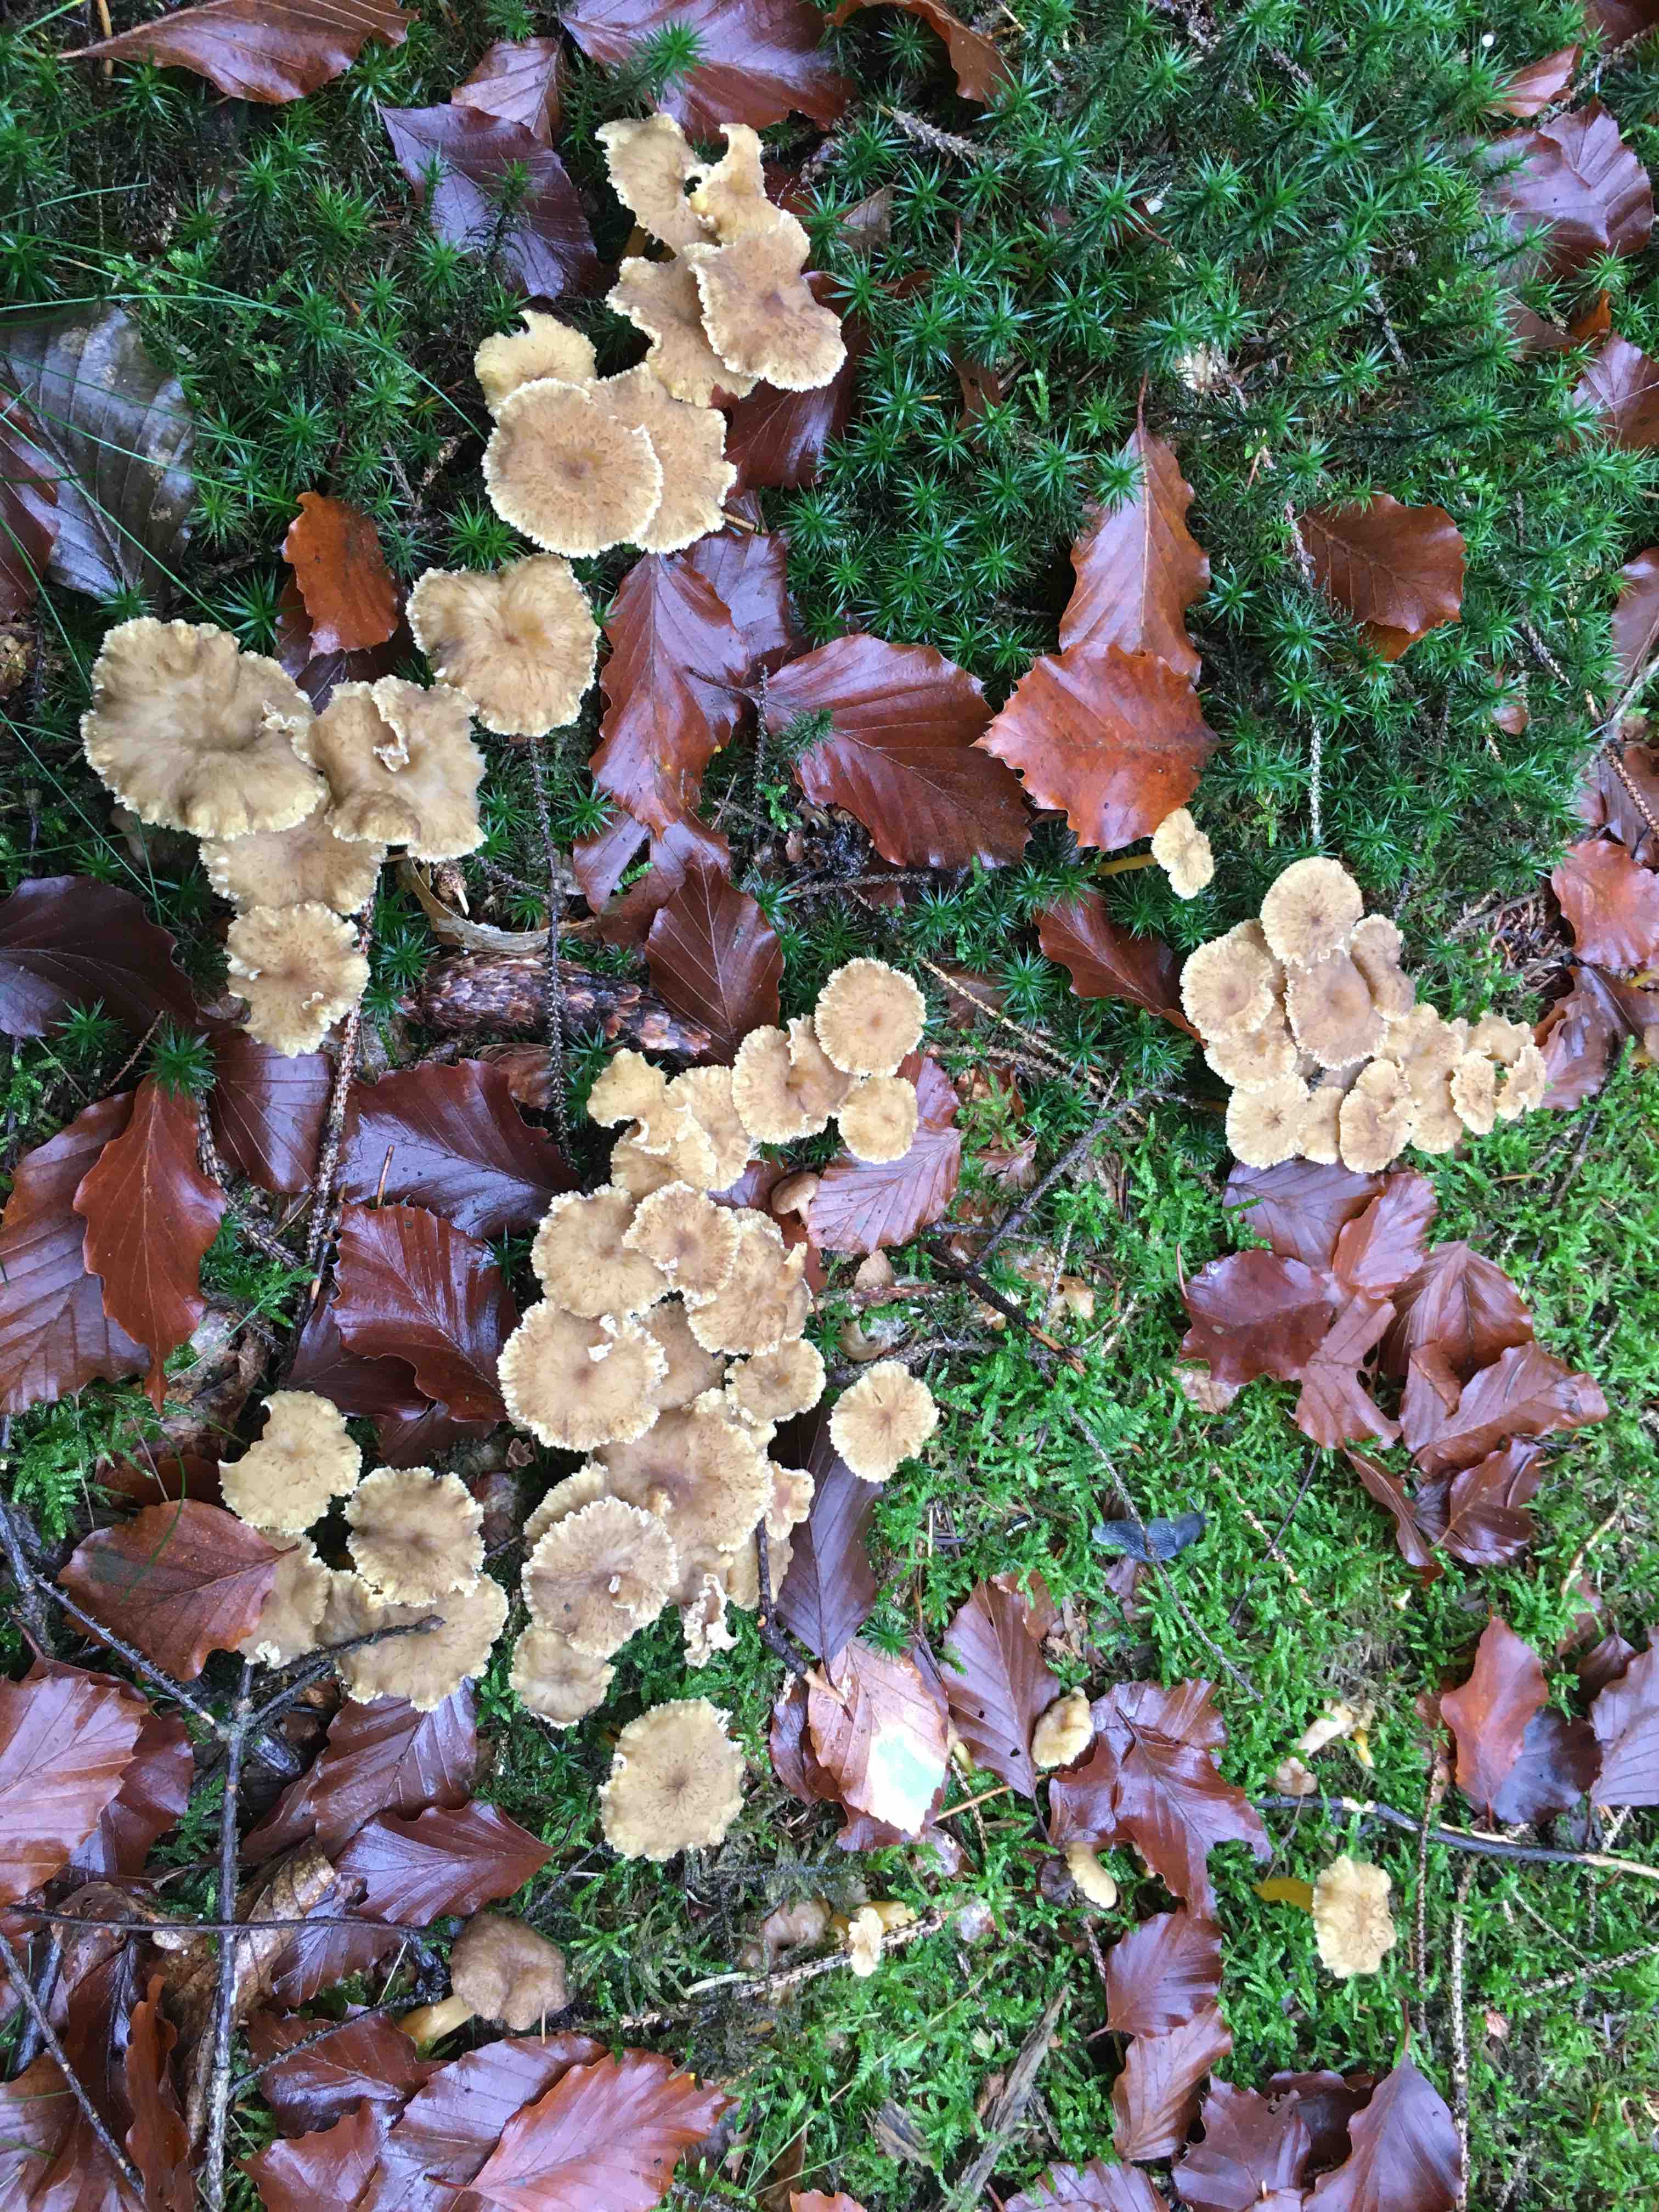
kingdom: Fungi
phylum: Basidiomycota
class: Agaricomycetes
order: Cantharellales
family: Hydnaceae
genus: Craterellus
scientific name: Craterellus tubaeformis
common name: tragt-kantarel
